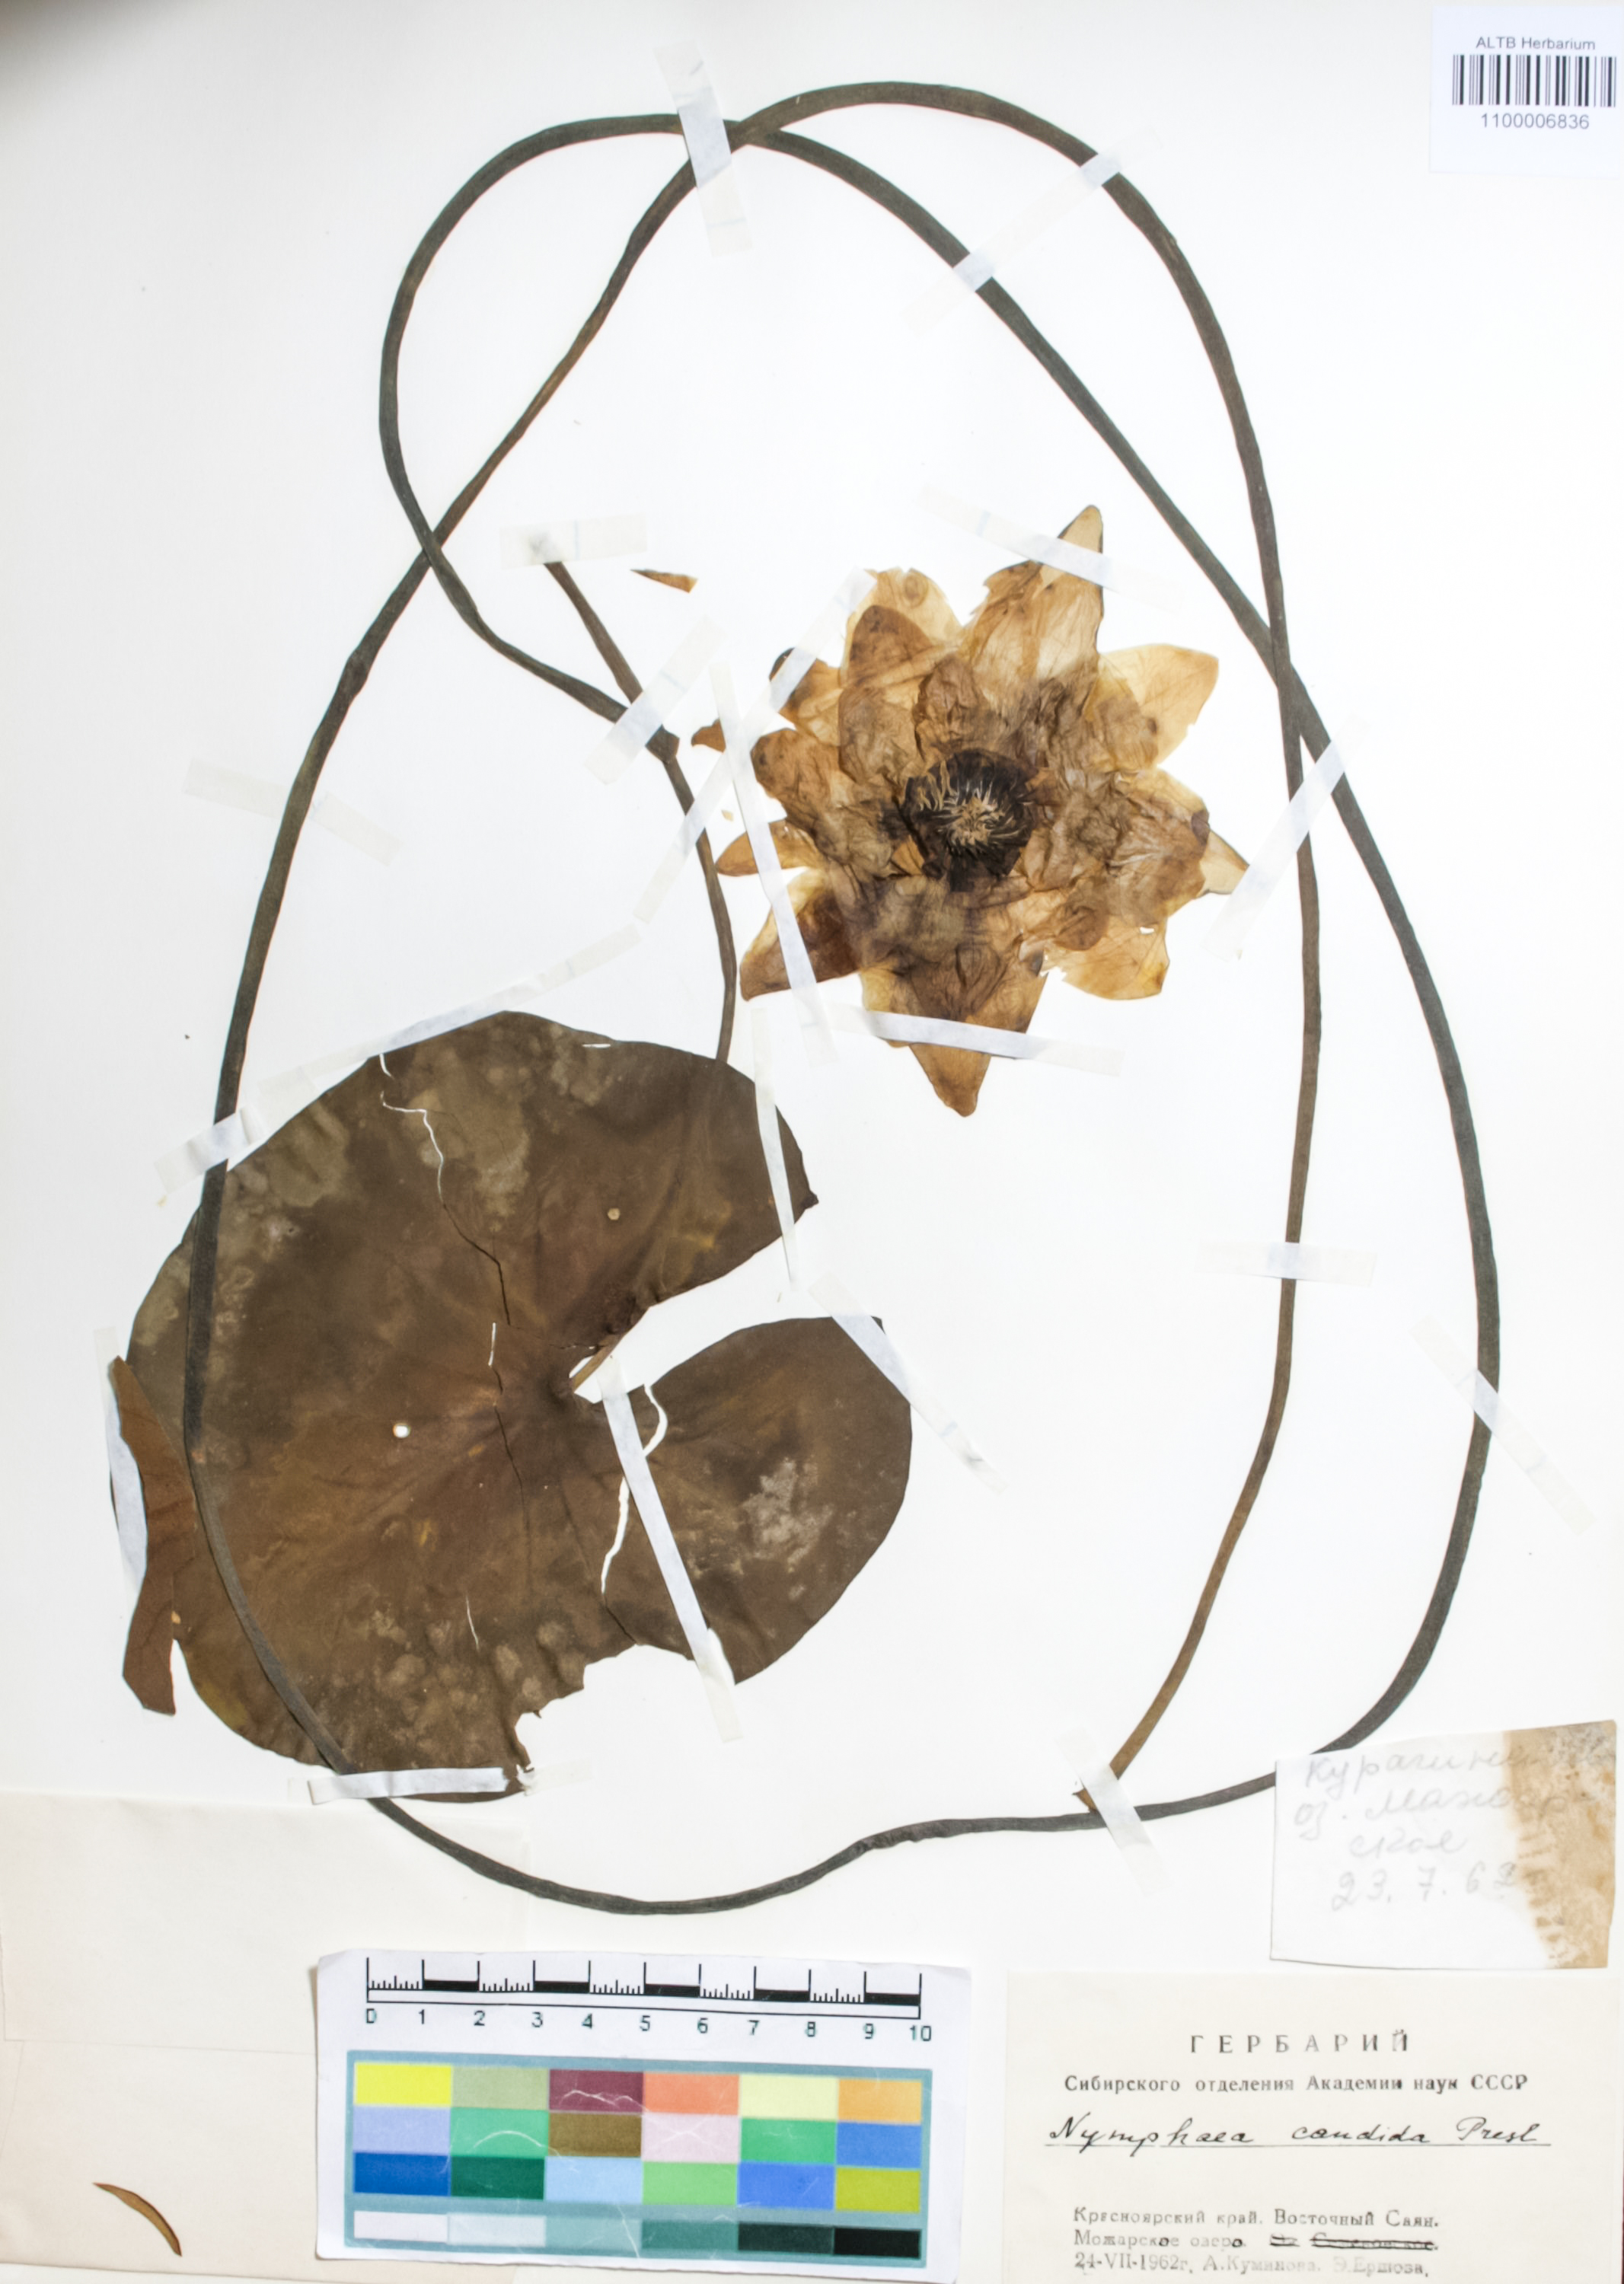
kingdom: Plantae
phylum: Tracheophyta
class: Magnoliopsida
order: Nymphaeales
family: Nymphaeaceae
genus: Nymphaea
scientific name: Nymphaea candida
